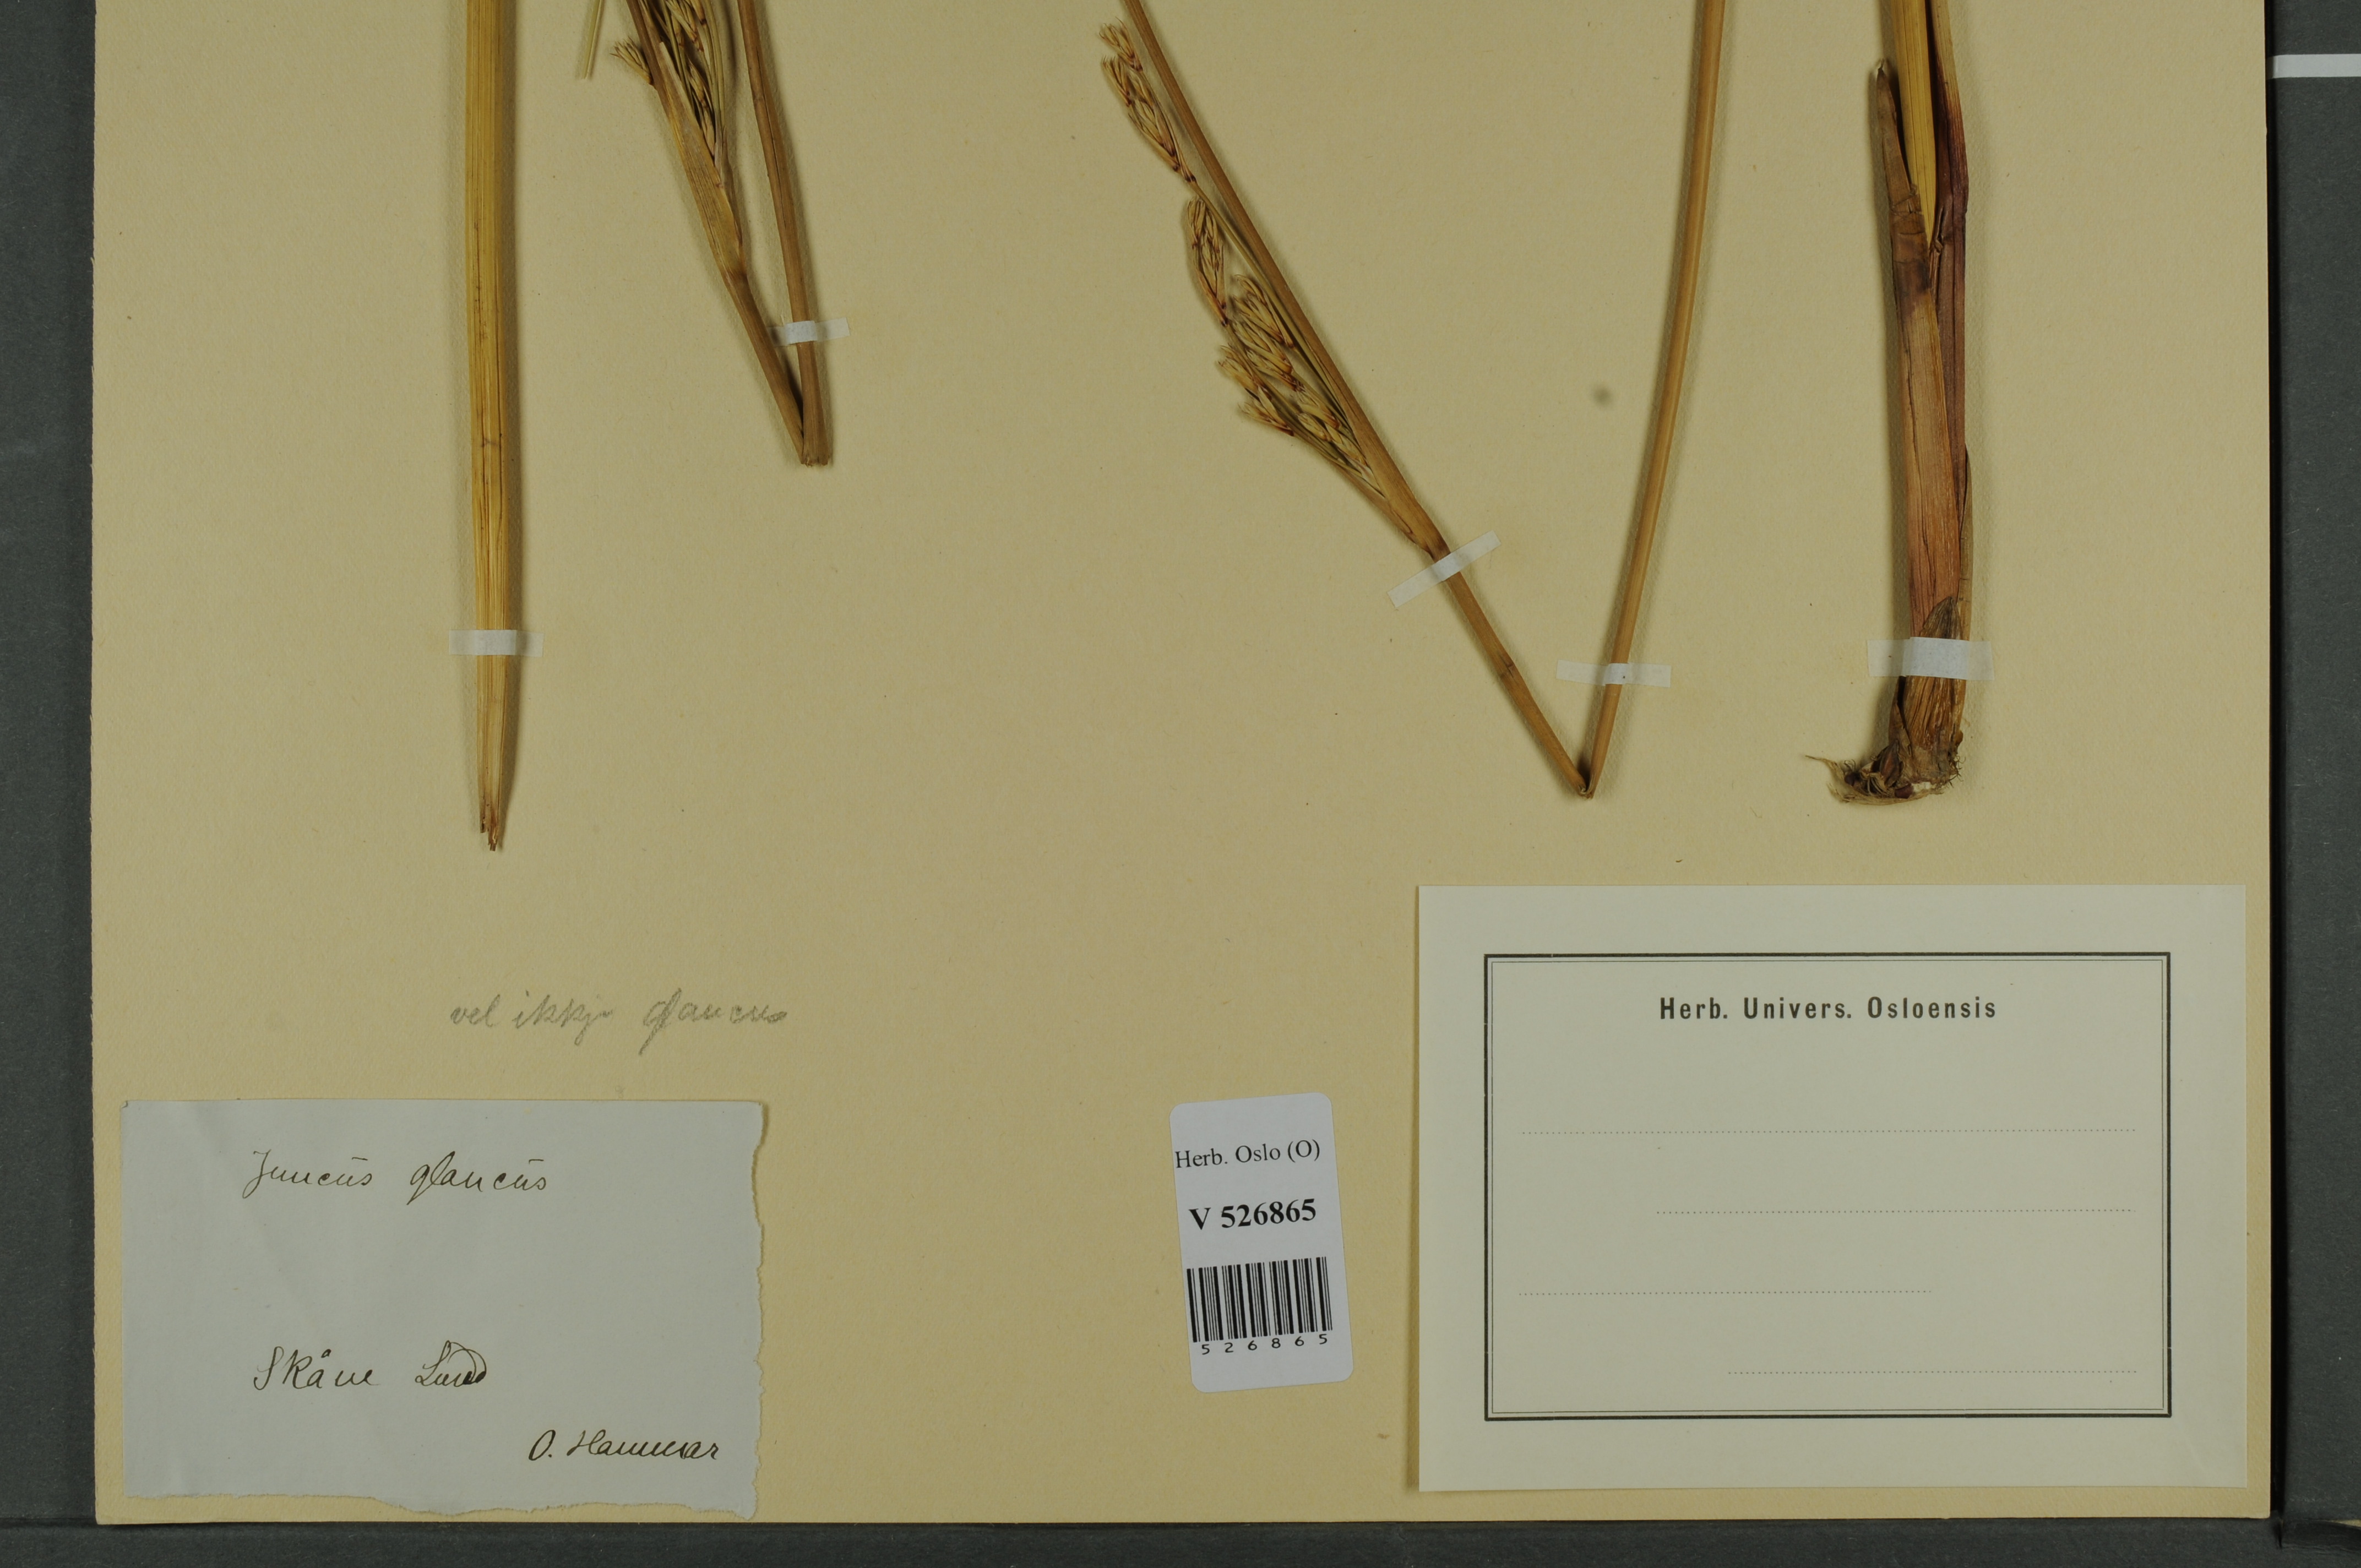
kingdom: Plantae
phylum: Tracheophyta
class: Liliopsida
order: Poales
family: Juncaceae
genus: Juncus
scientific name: Juncus inflexus
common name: Hard rush
